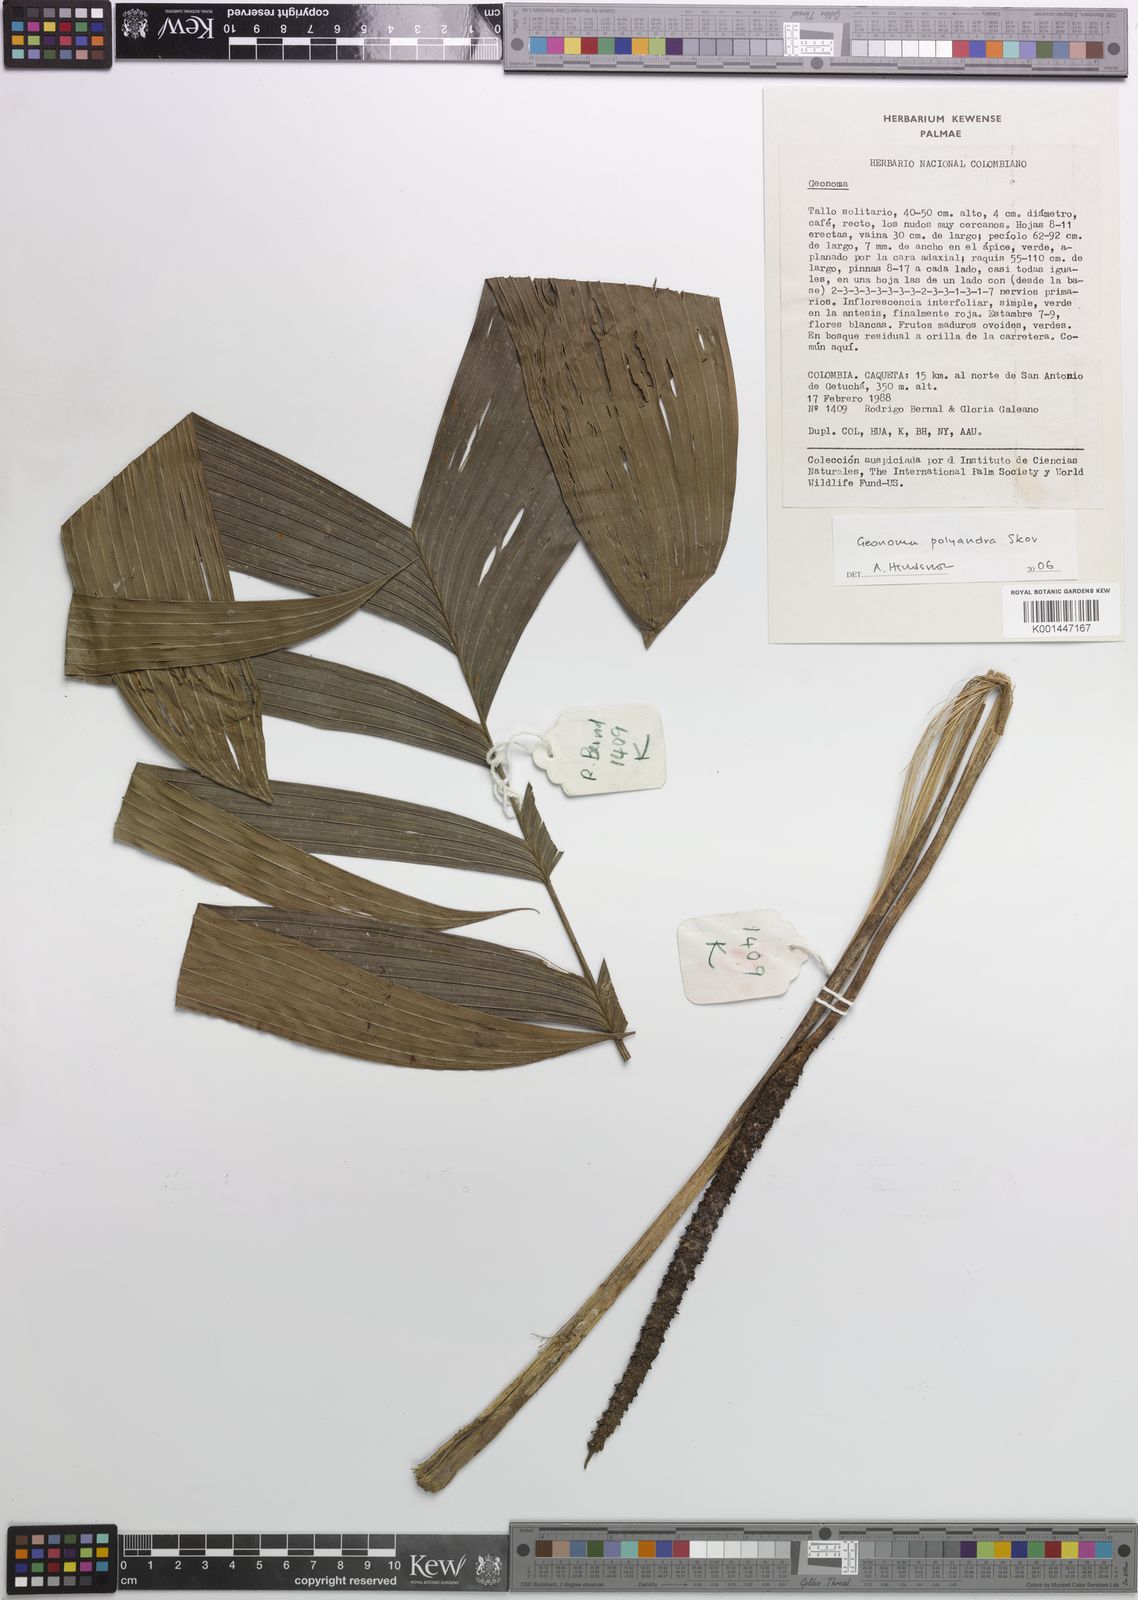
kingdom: Plantae
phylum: Tracheophyta
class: Liliopsida
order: Arecales
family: Arecaceae
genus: Geonoma
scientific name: Geonoma multisecta
